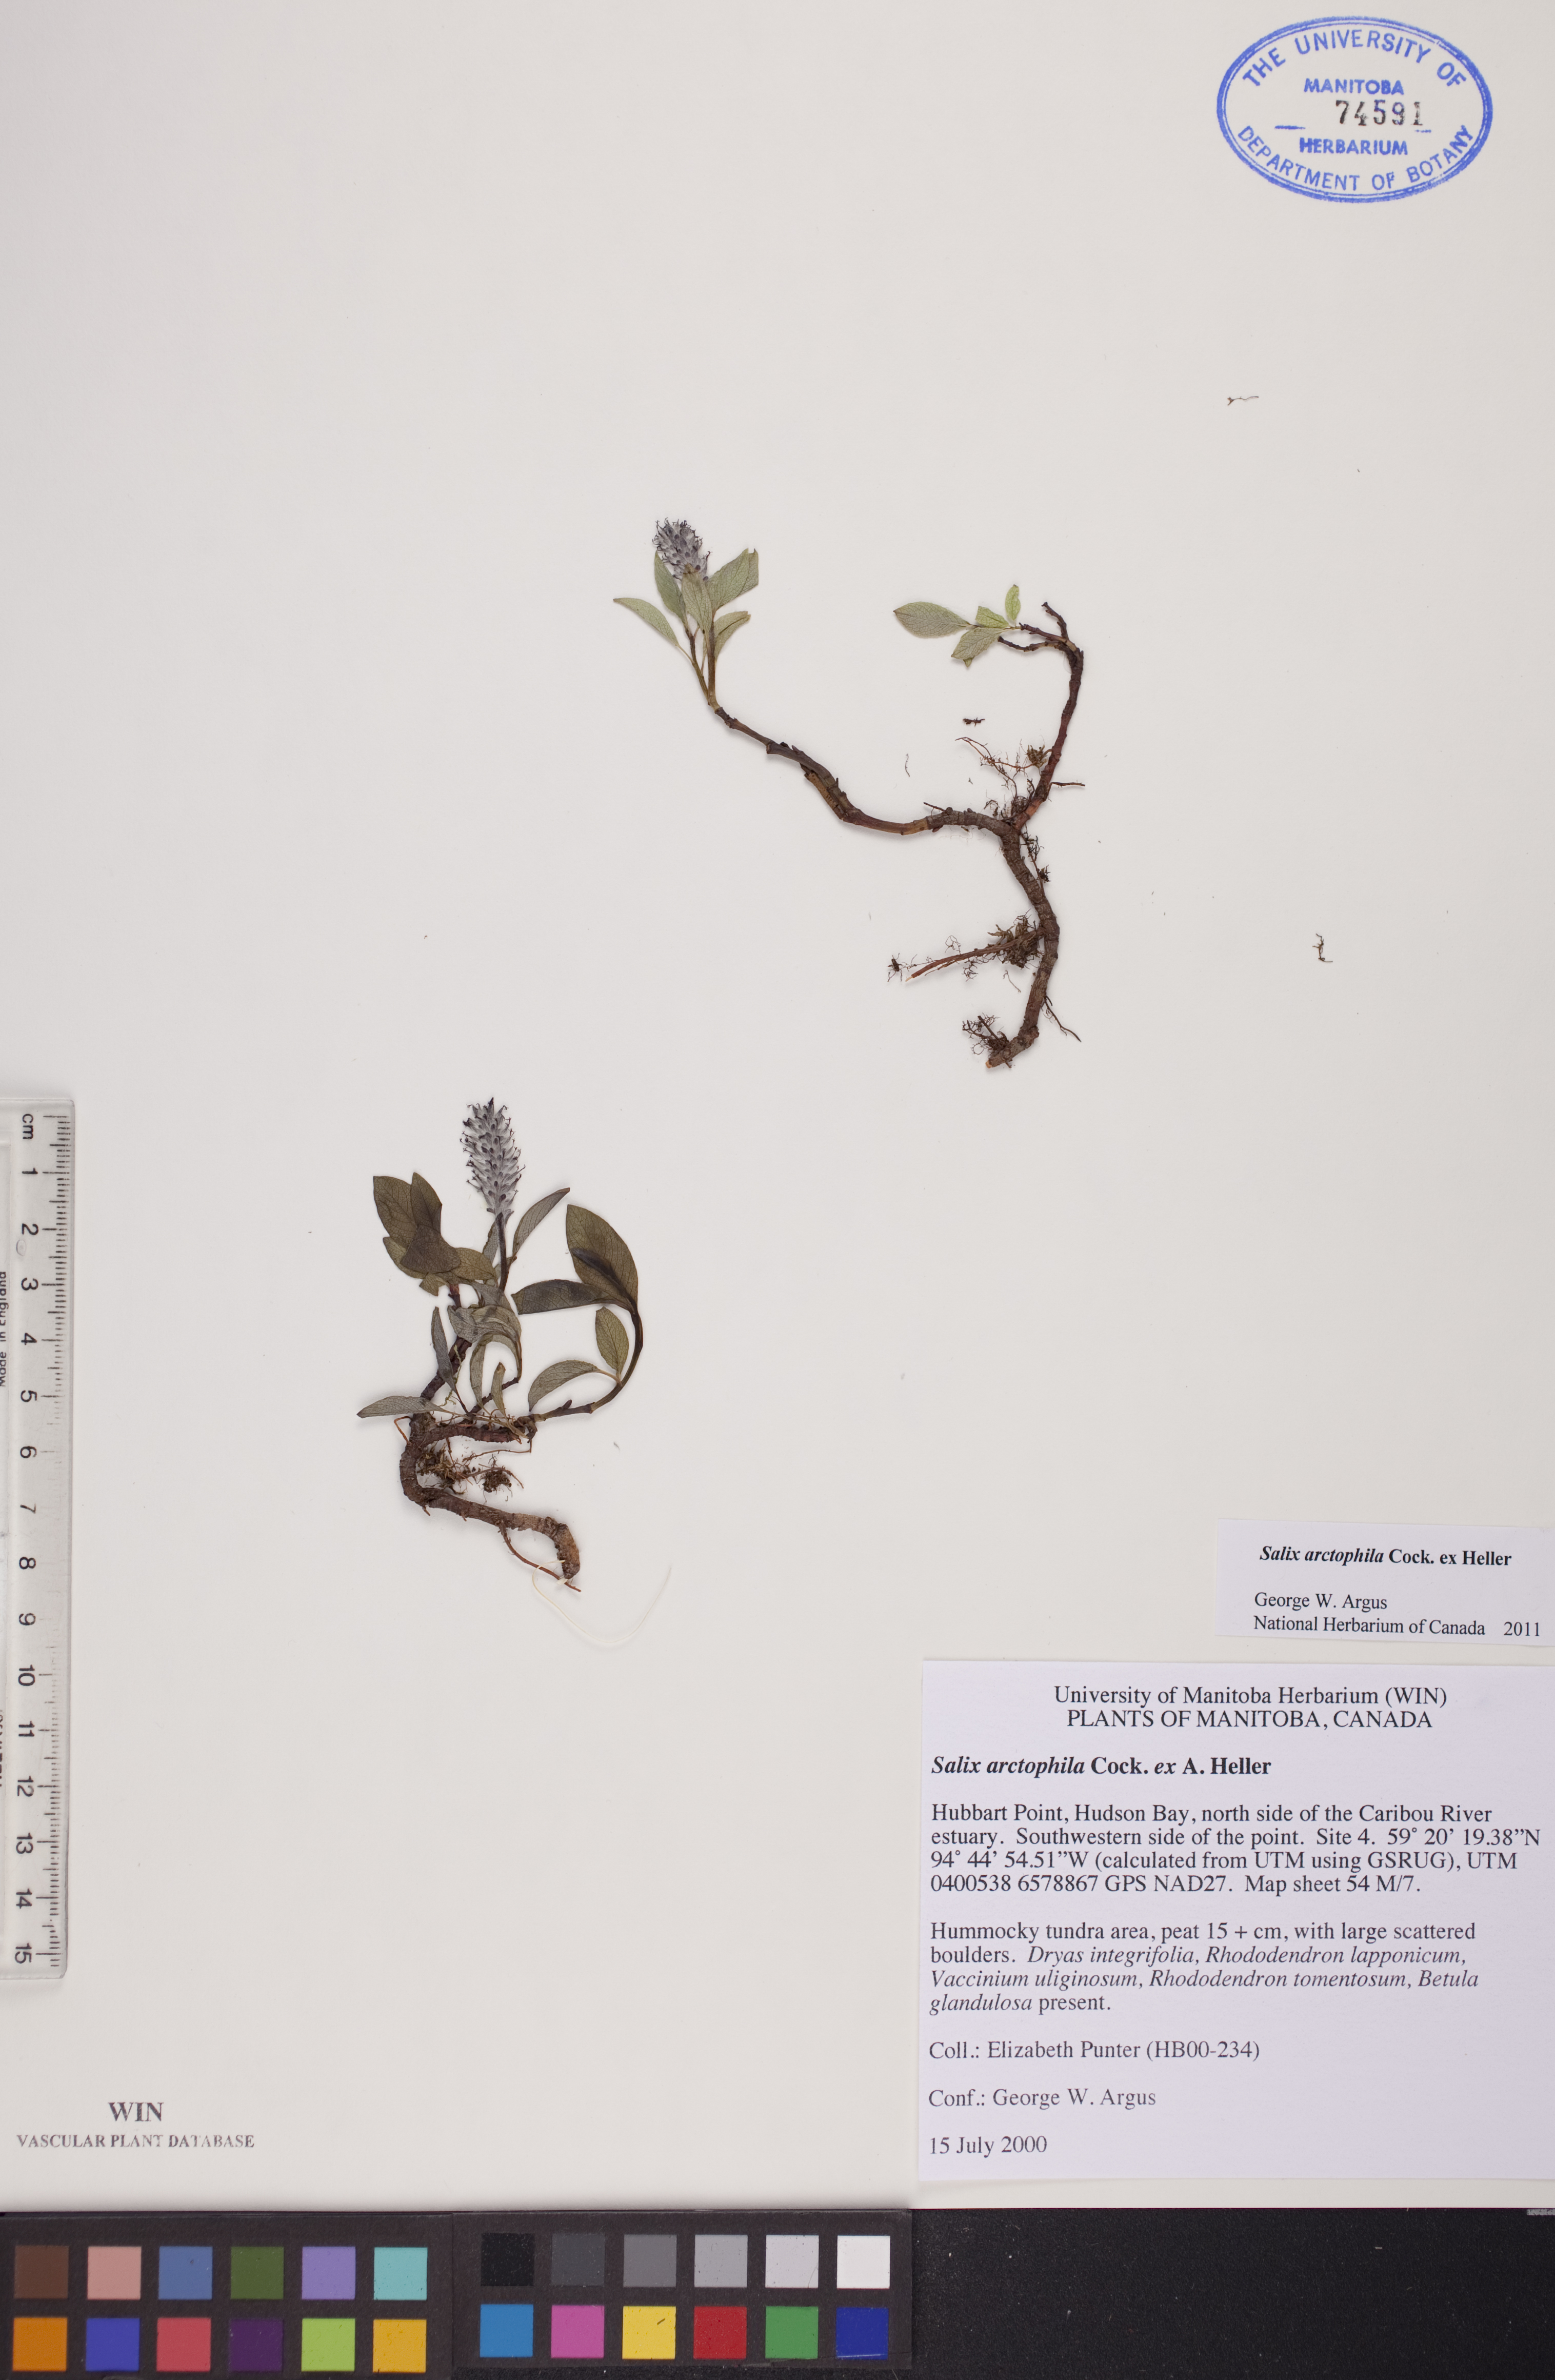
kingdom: Plantae
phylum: Tracheophyta
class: Magnoliopsida
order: Malpighiales
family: Salicaceae
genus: Salix
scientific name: Salix arctophila
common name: Greenland willow
